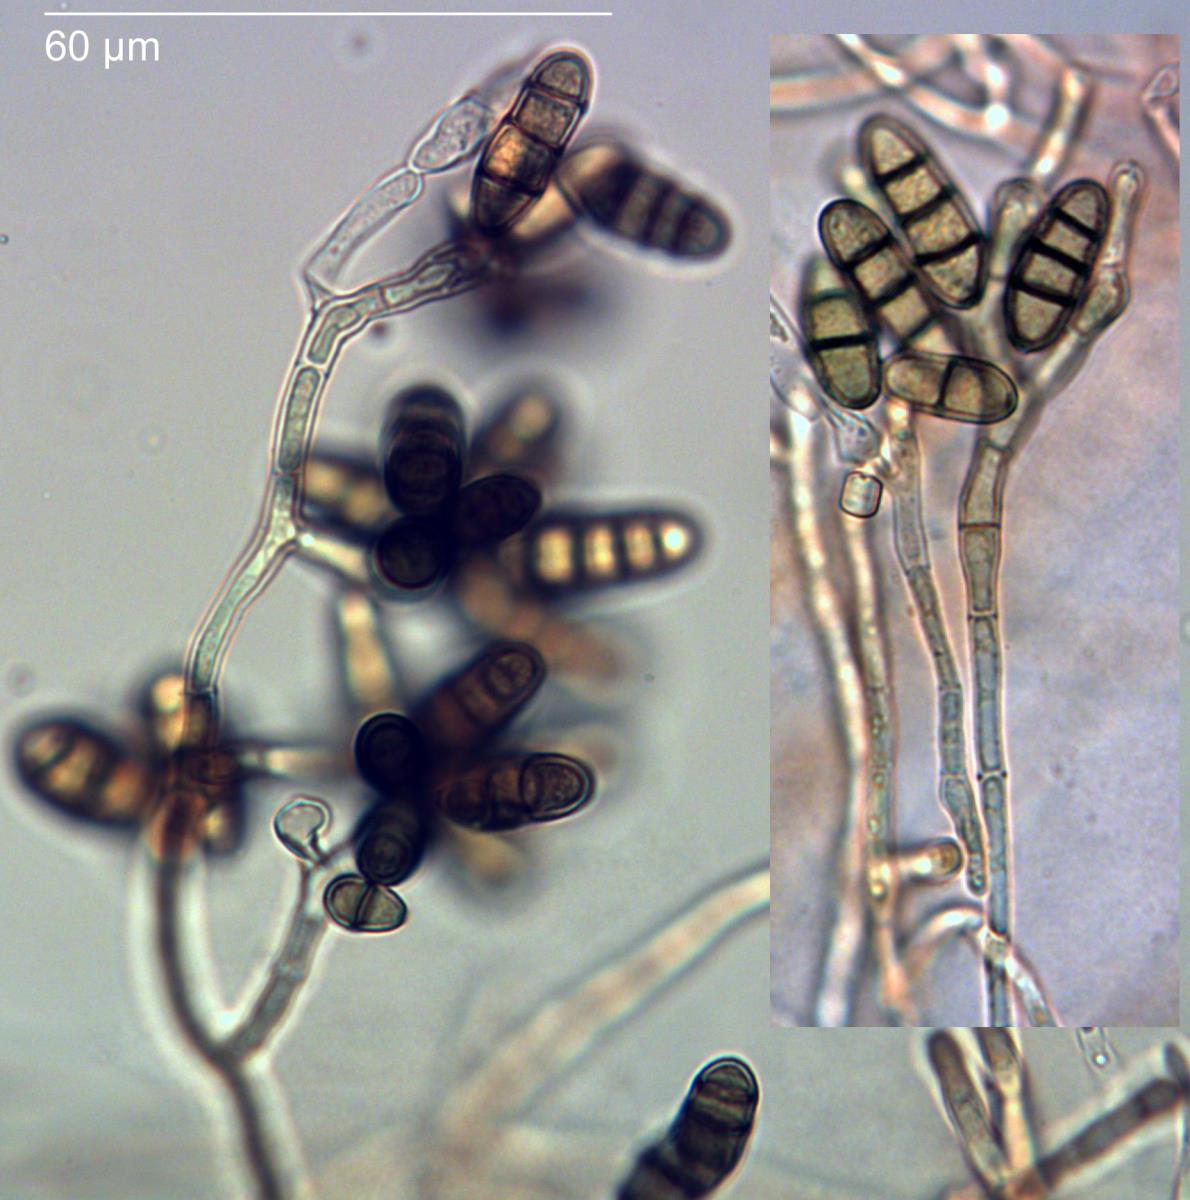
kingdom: Fungi
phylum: Ascomycota
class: Dothideomycetes
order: Pleosporales
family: Pleosporaceae
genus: Paradendryphiella
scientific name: Paradendryphiella salina
